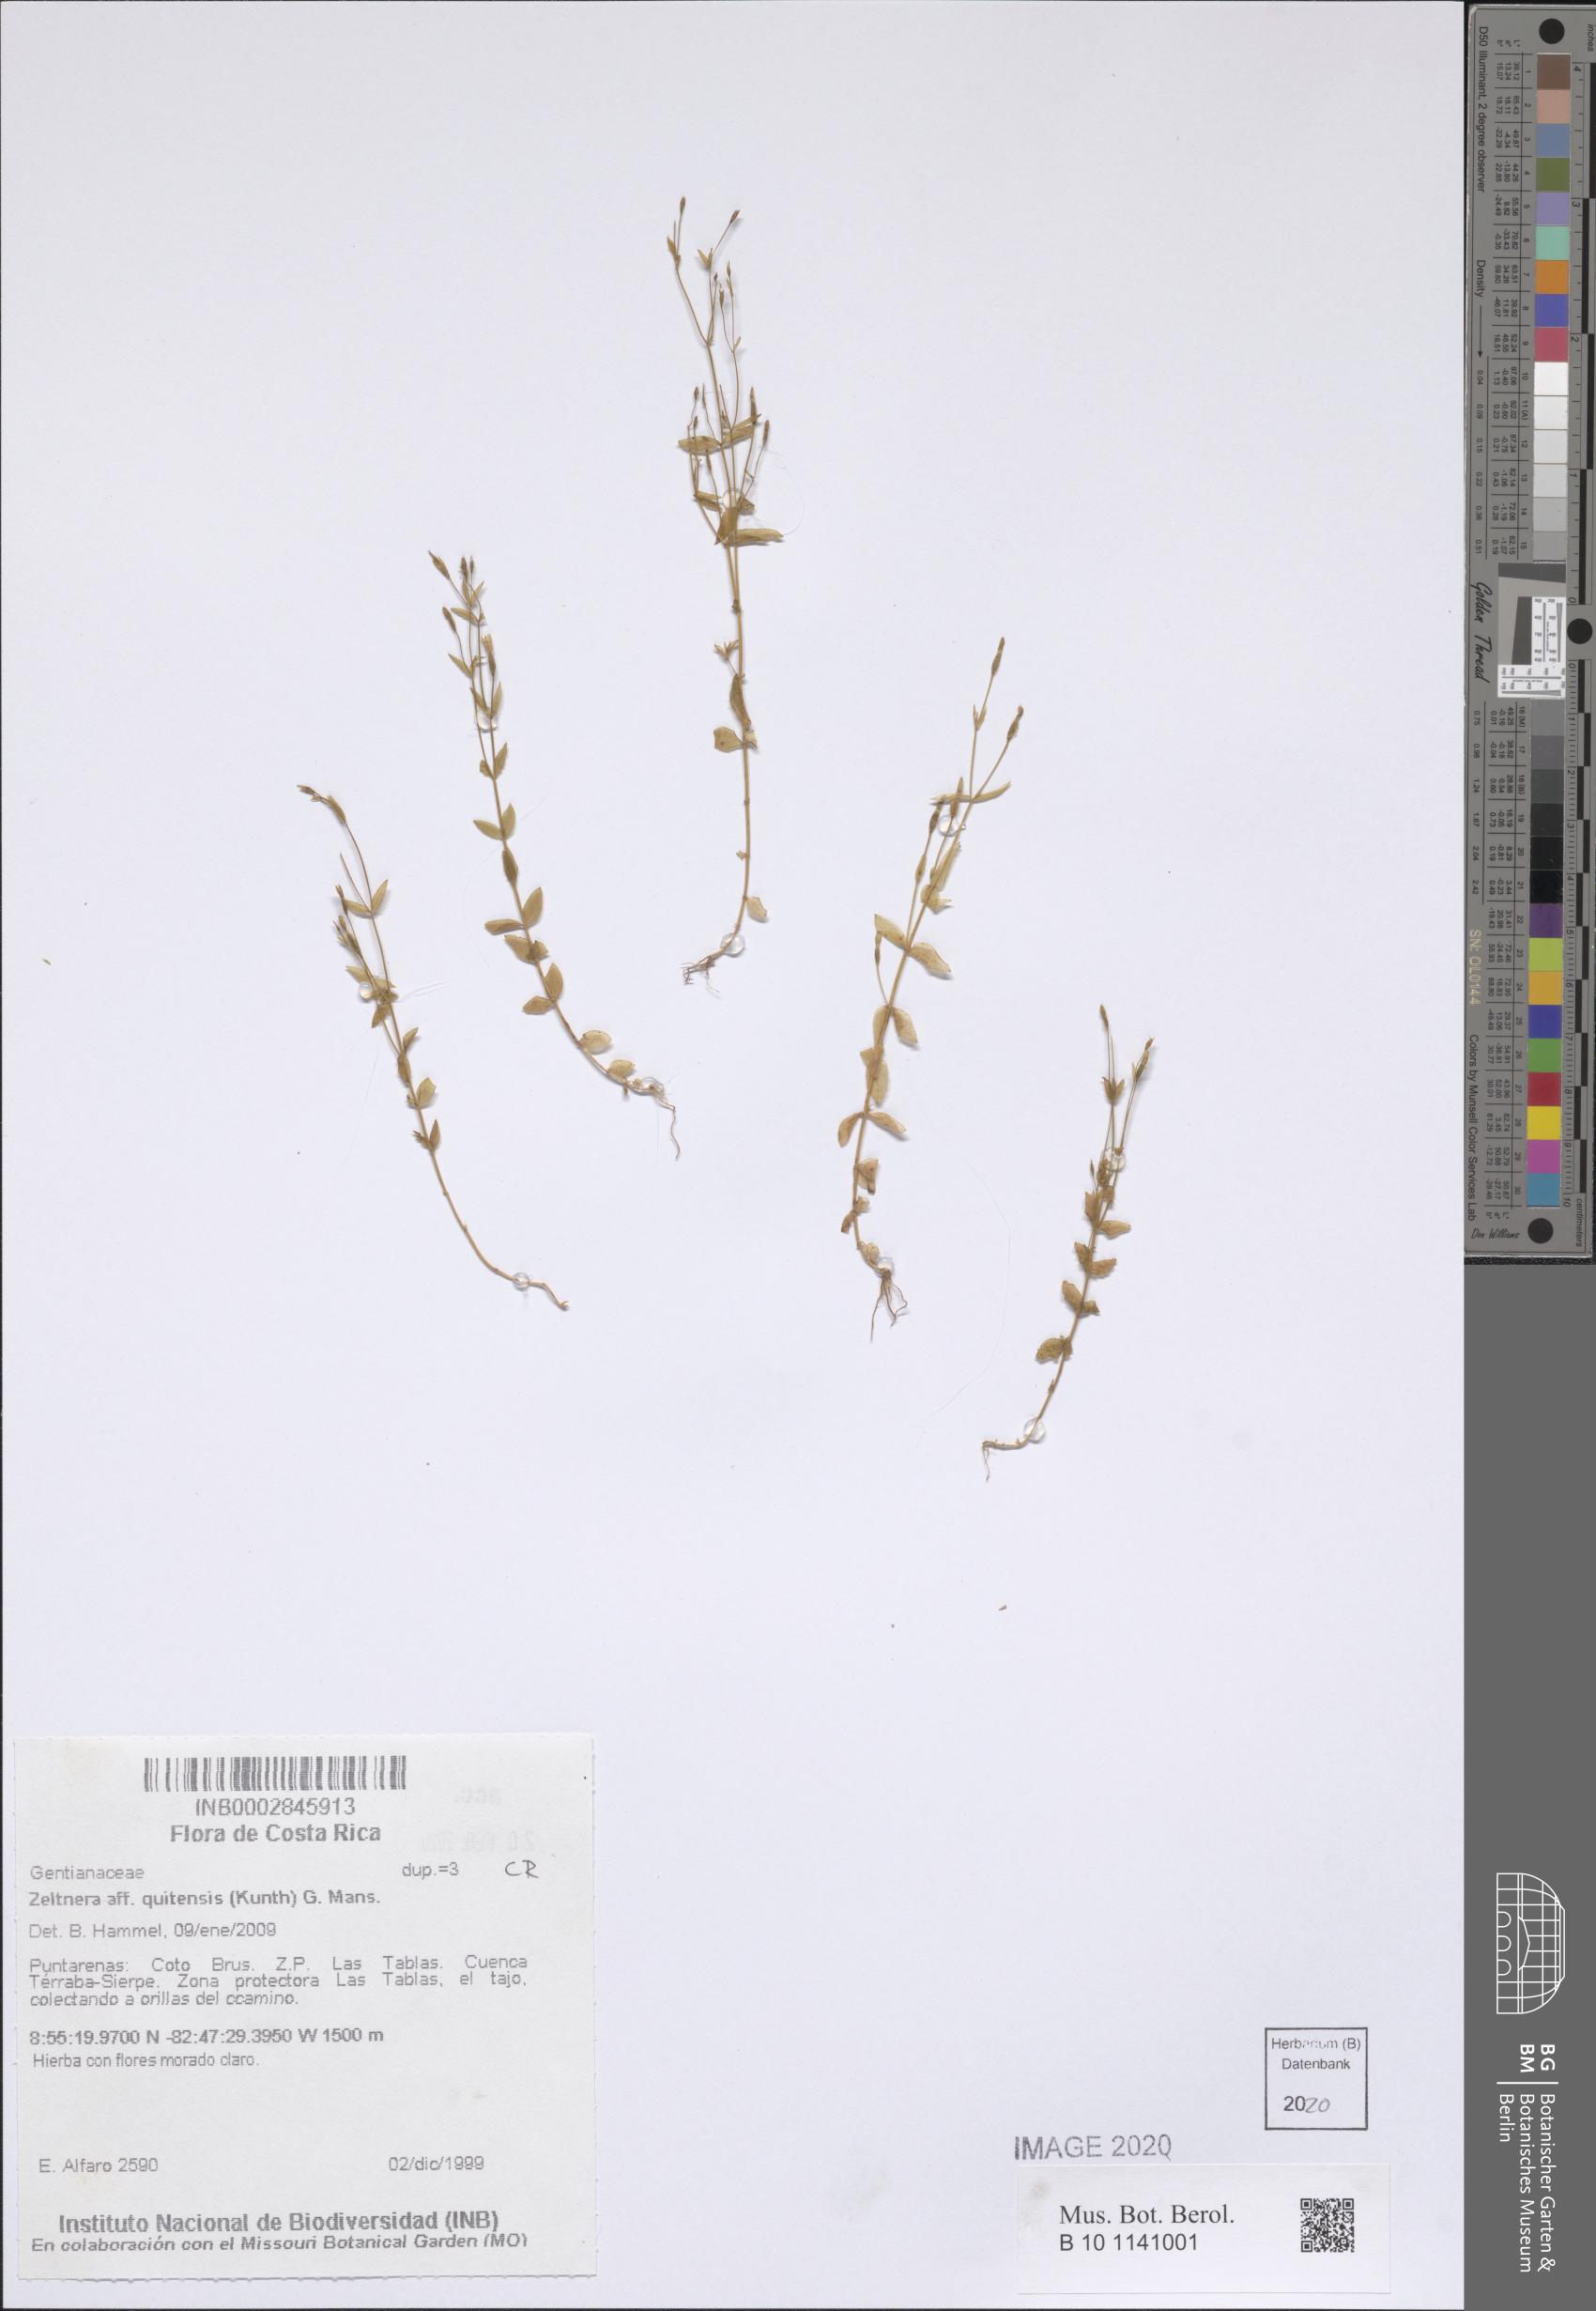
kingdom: Plantae
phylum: Tracheophyta
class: Magnoliopsida
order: Gentianales
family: Gentianaceae
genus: Zeltnera
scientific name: Zeltnera quitensis
